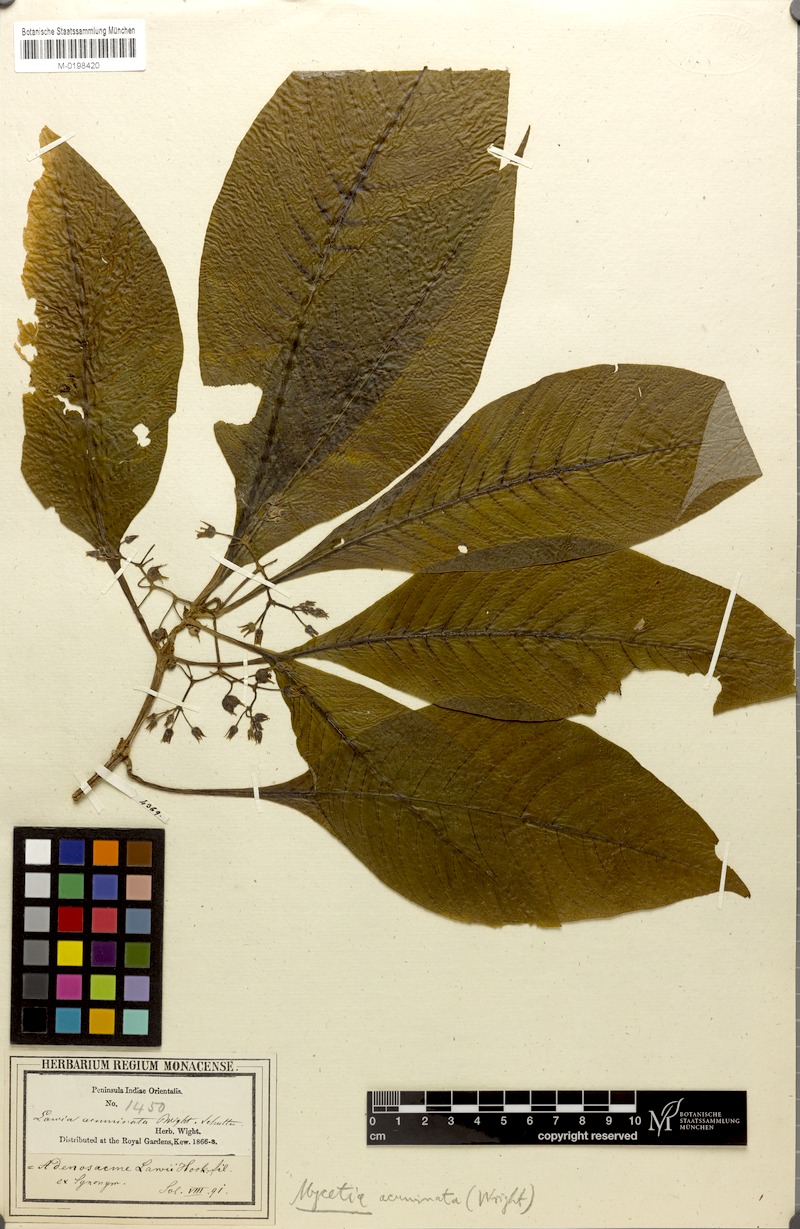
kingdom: Plantae
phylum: Tracheophyta
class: Magnoliopsida
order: Gentianales
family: Rubiaceae
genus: Mycetia
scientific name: Mycetia acuminata
